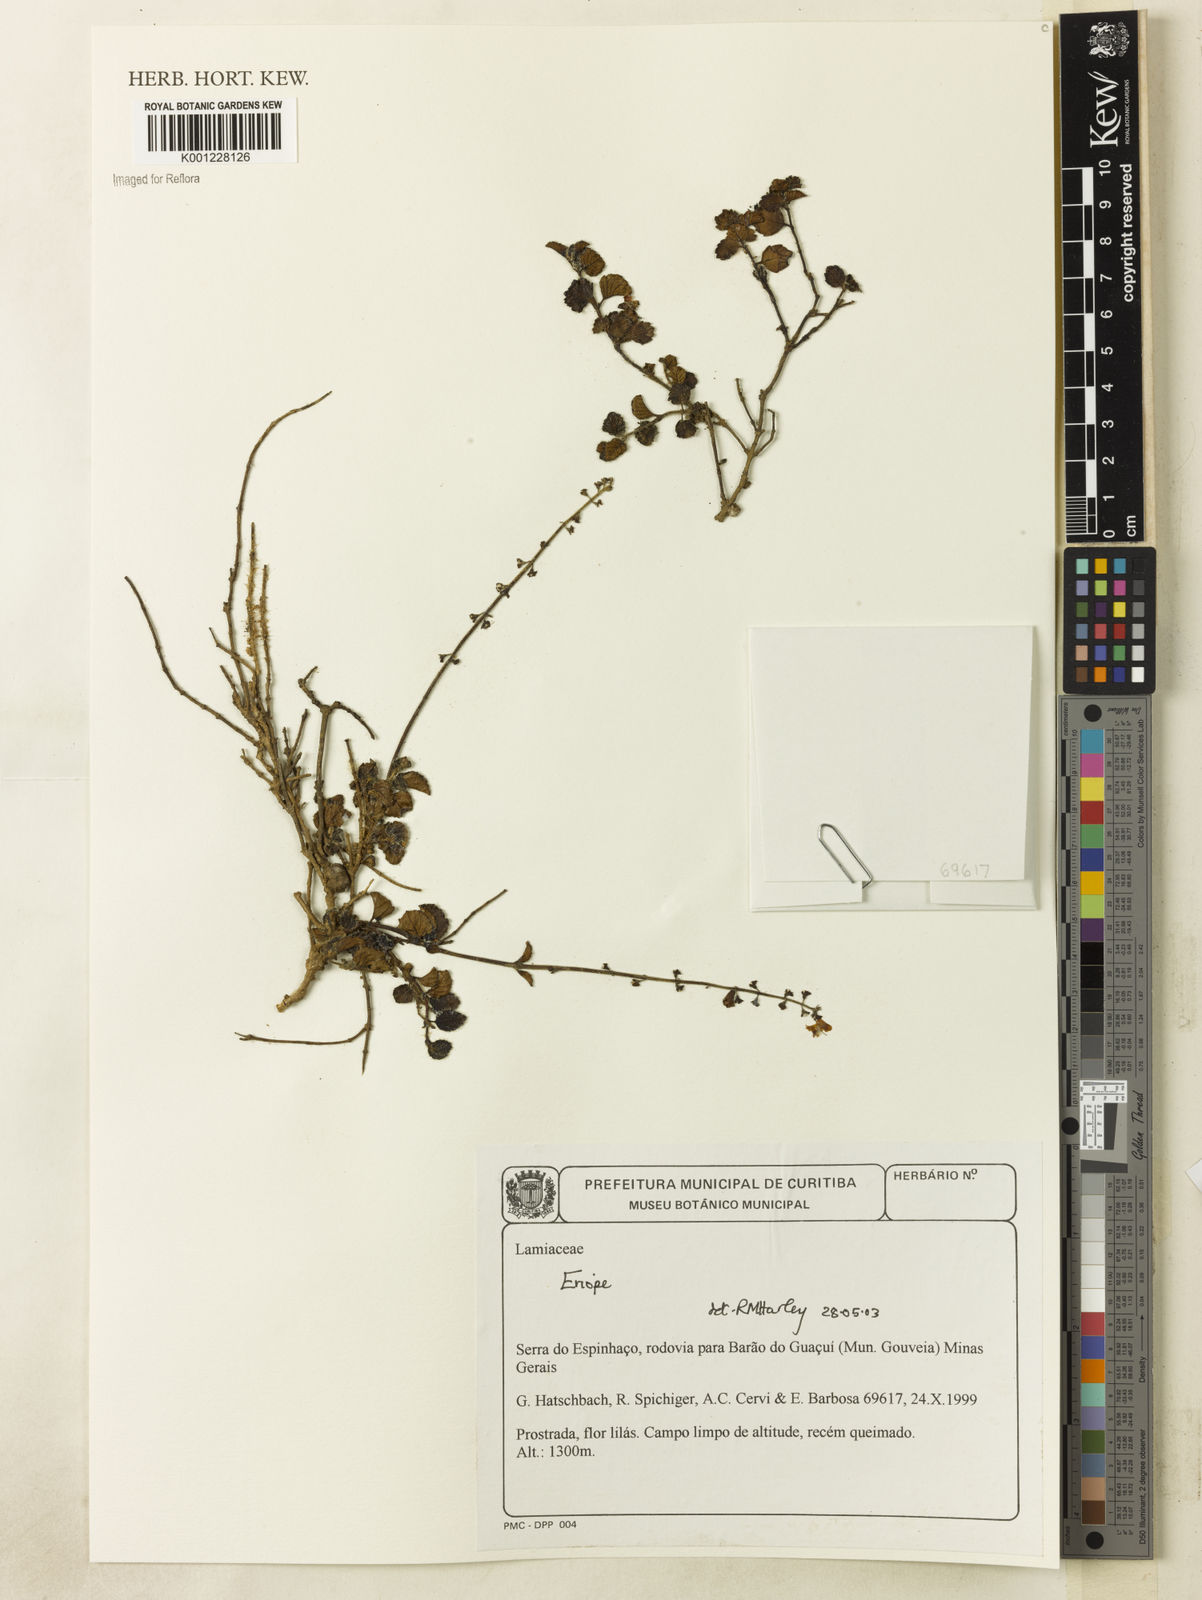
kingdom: Plantae
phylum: Tracheophyta
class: Magnoliopsida
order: Lamiales
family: Lamiaceae
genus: Eriope
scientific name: Eriope
